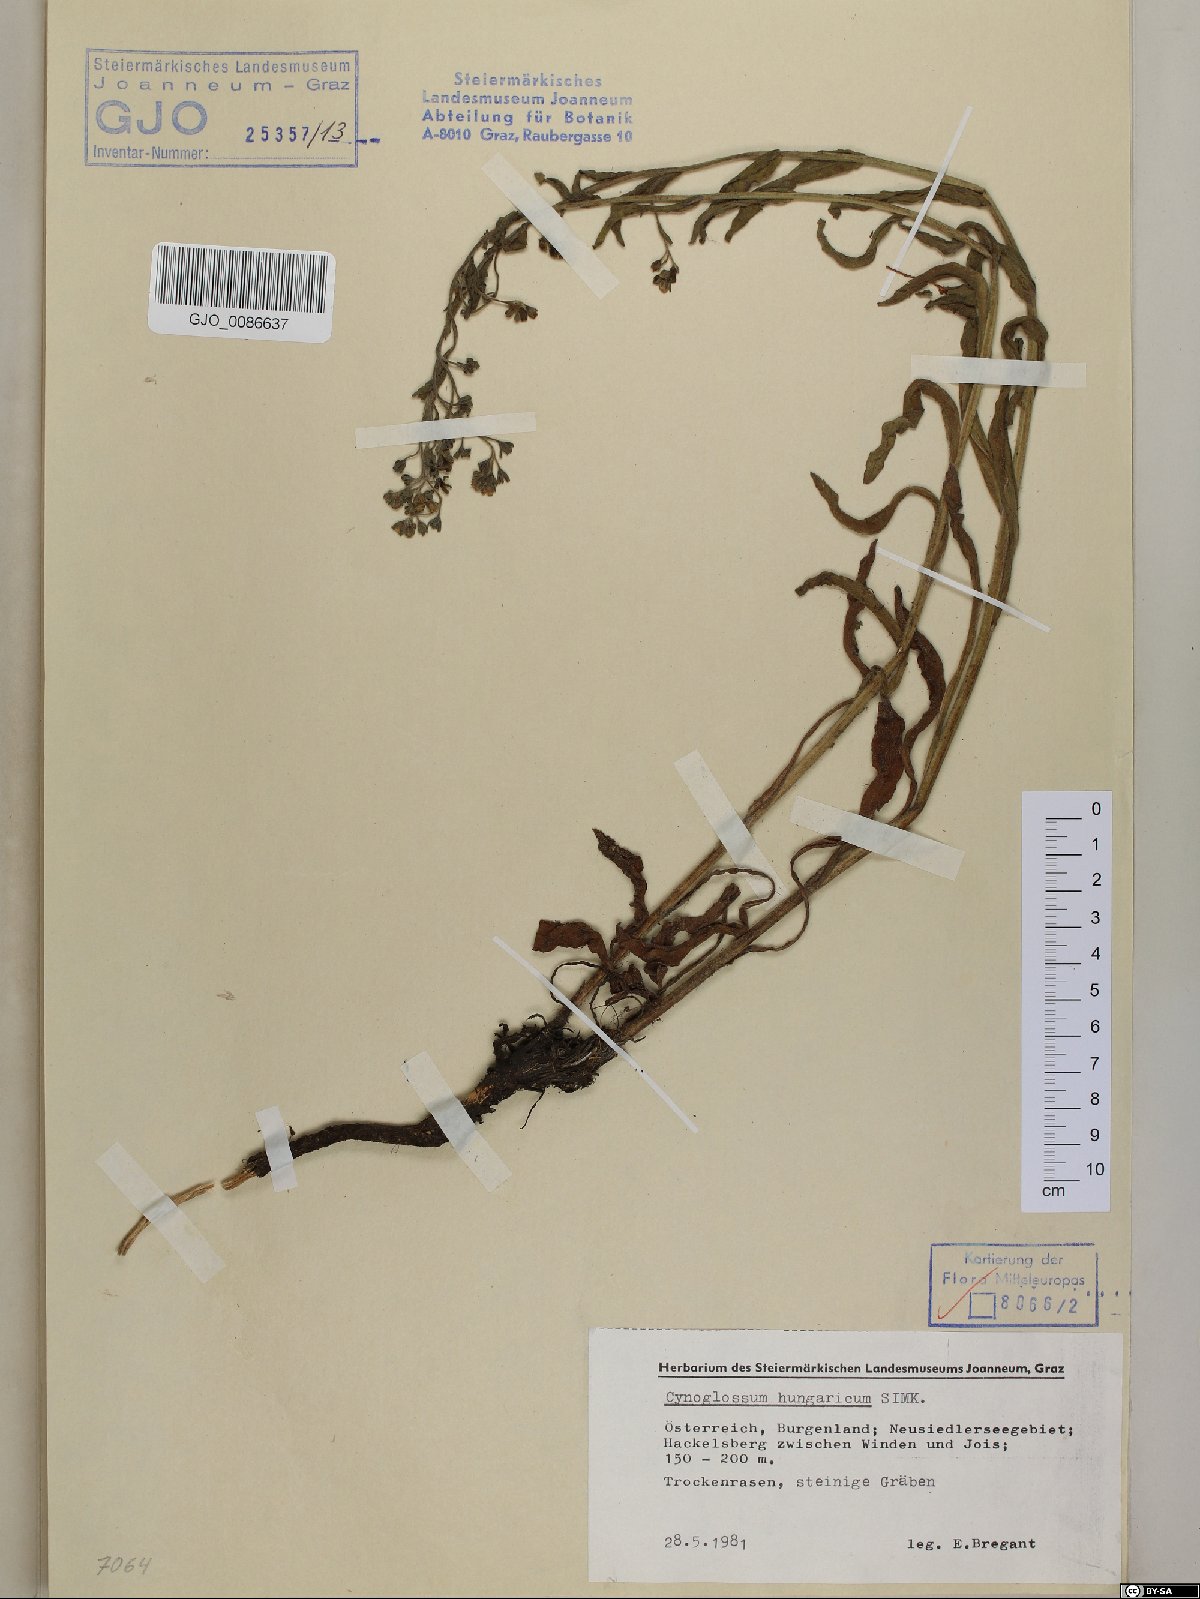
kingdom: Plantae
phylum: Tracheophyta
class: Magnoliopsida
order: Boraginales
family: Boraginaceae
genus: Cynoglossum
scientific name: Cynoglossum montanum
